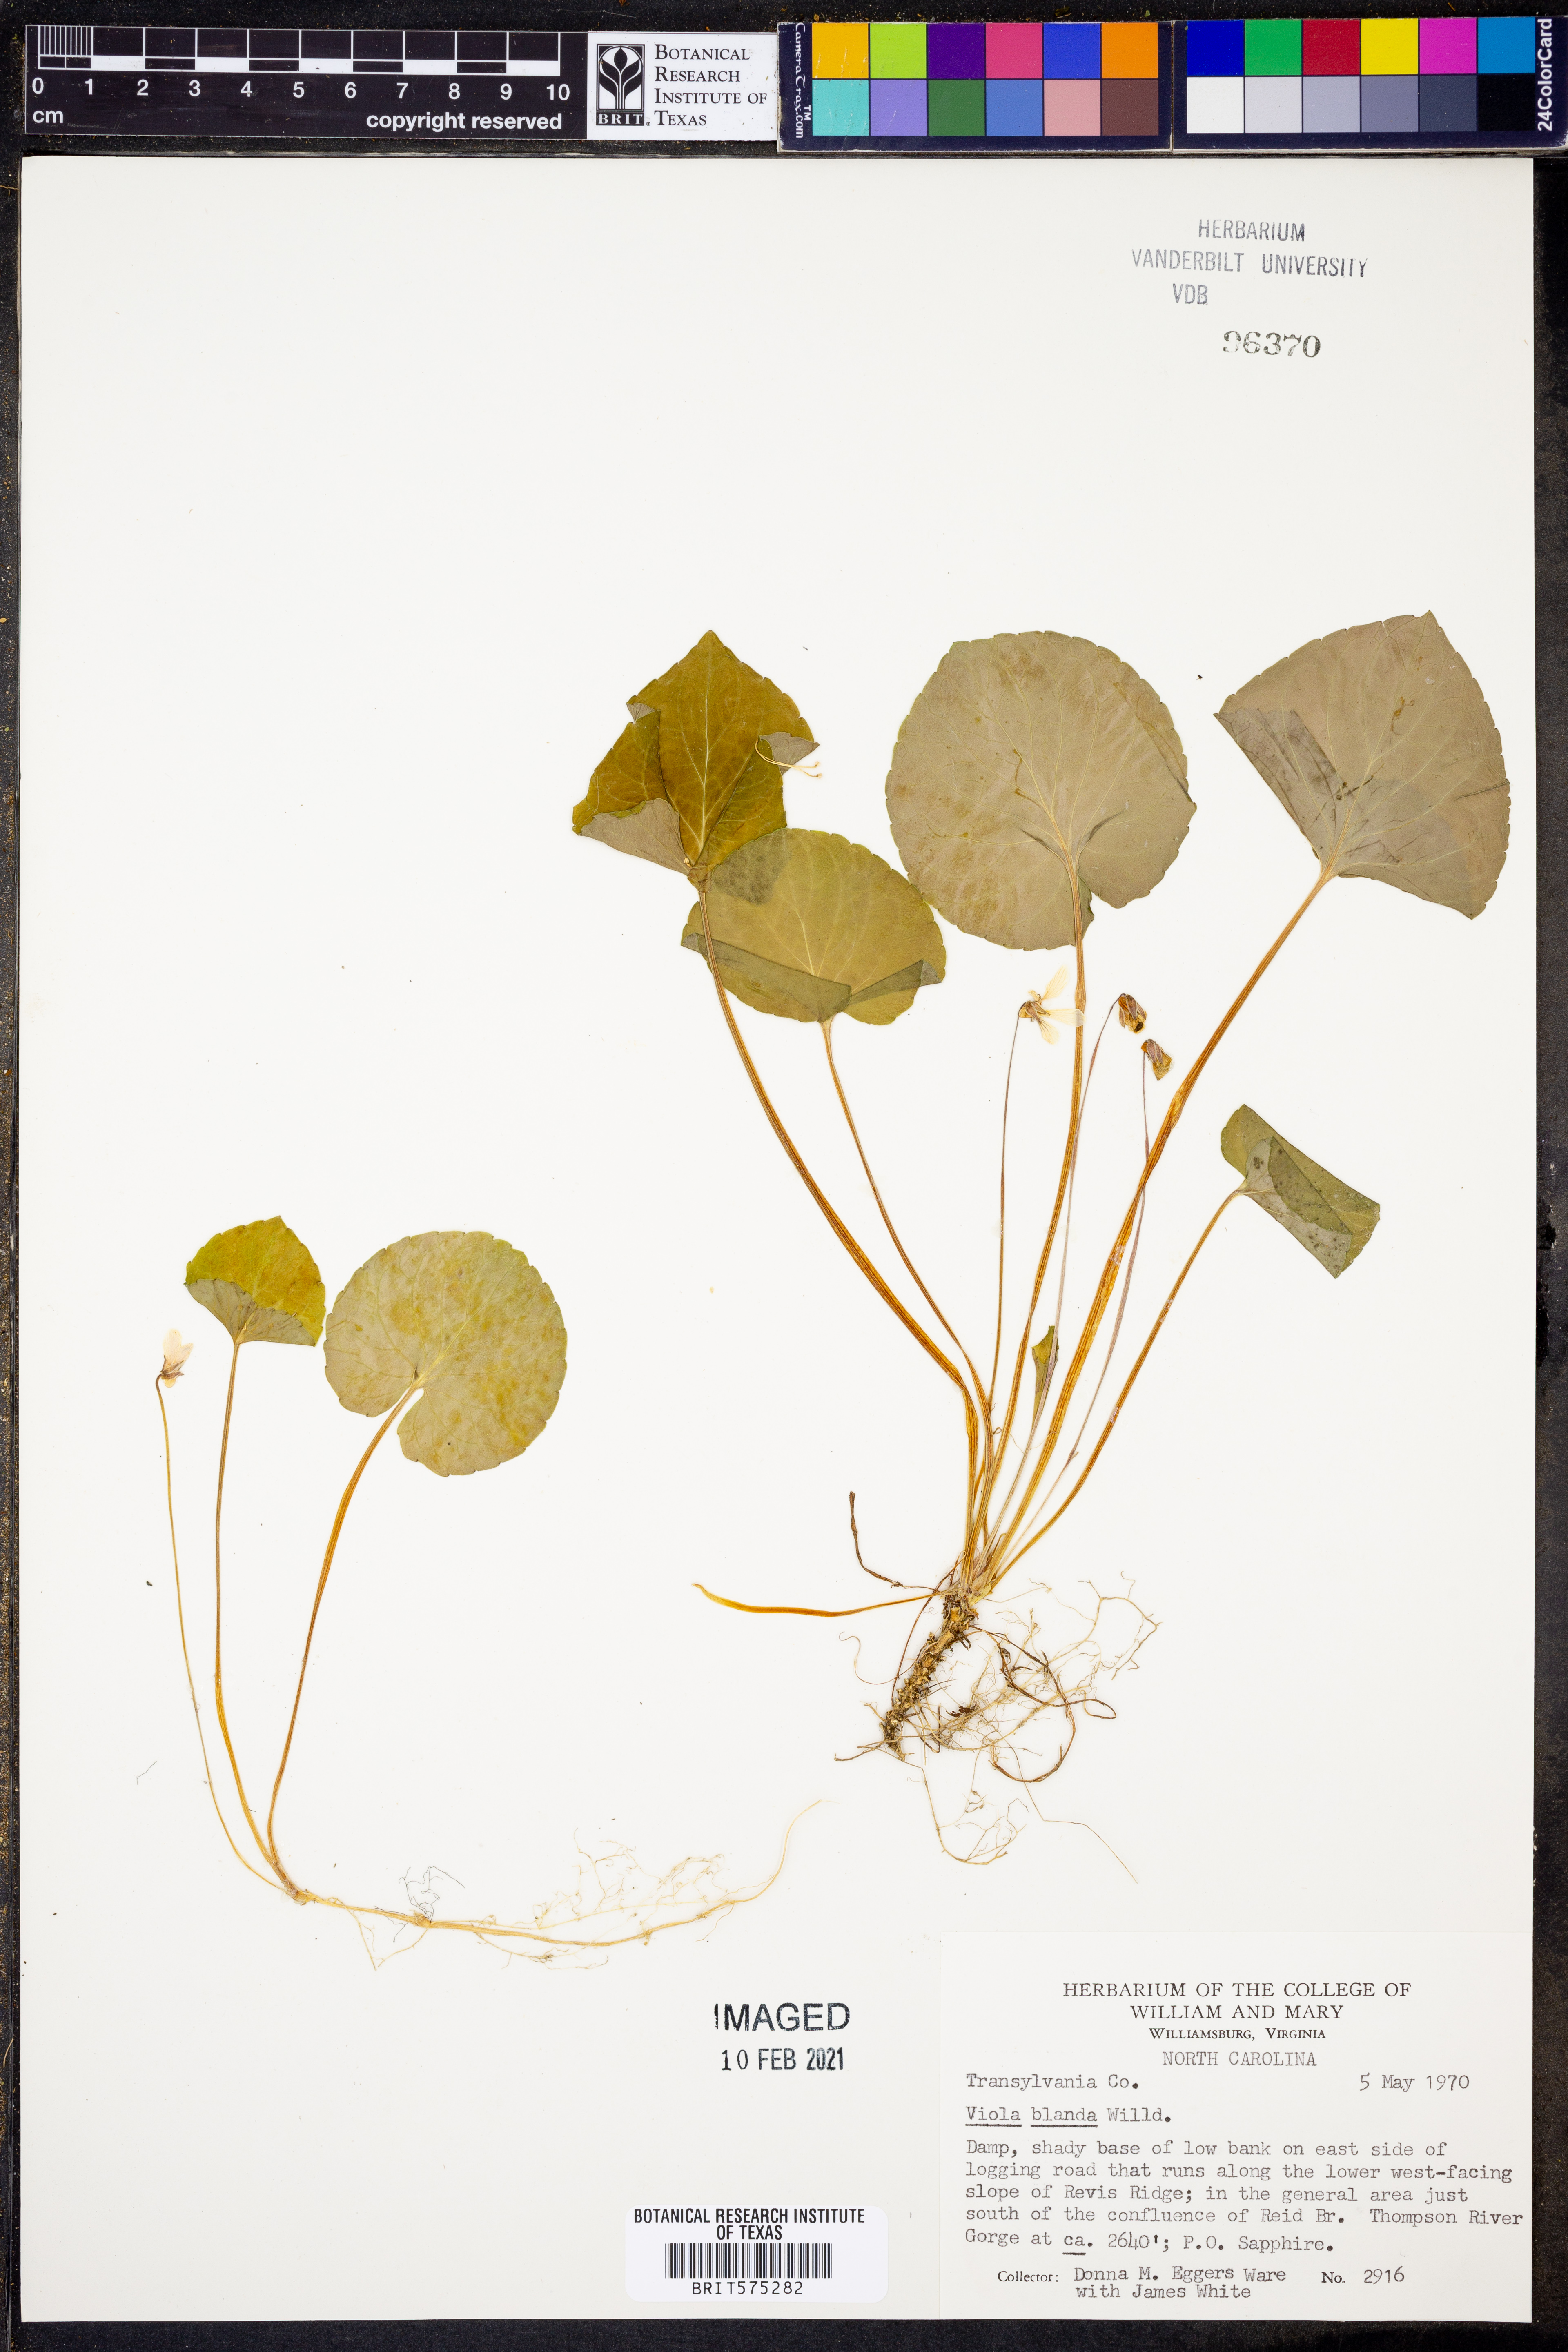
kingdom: Plantae
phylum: Tracheophyta
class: Magnoliopsida
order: Malpighiales
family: Violaceae
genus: Viola
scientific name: Viola blanda
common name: Sweet white violet
